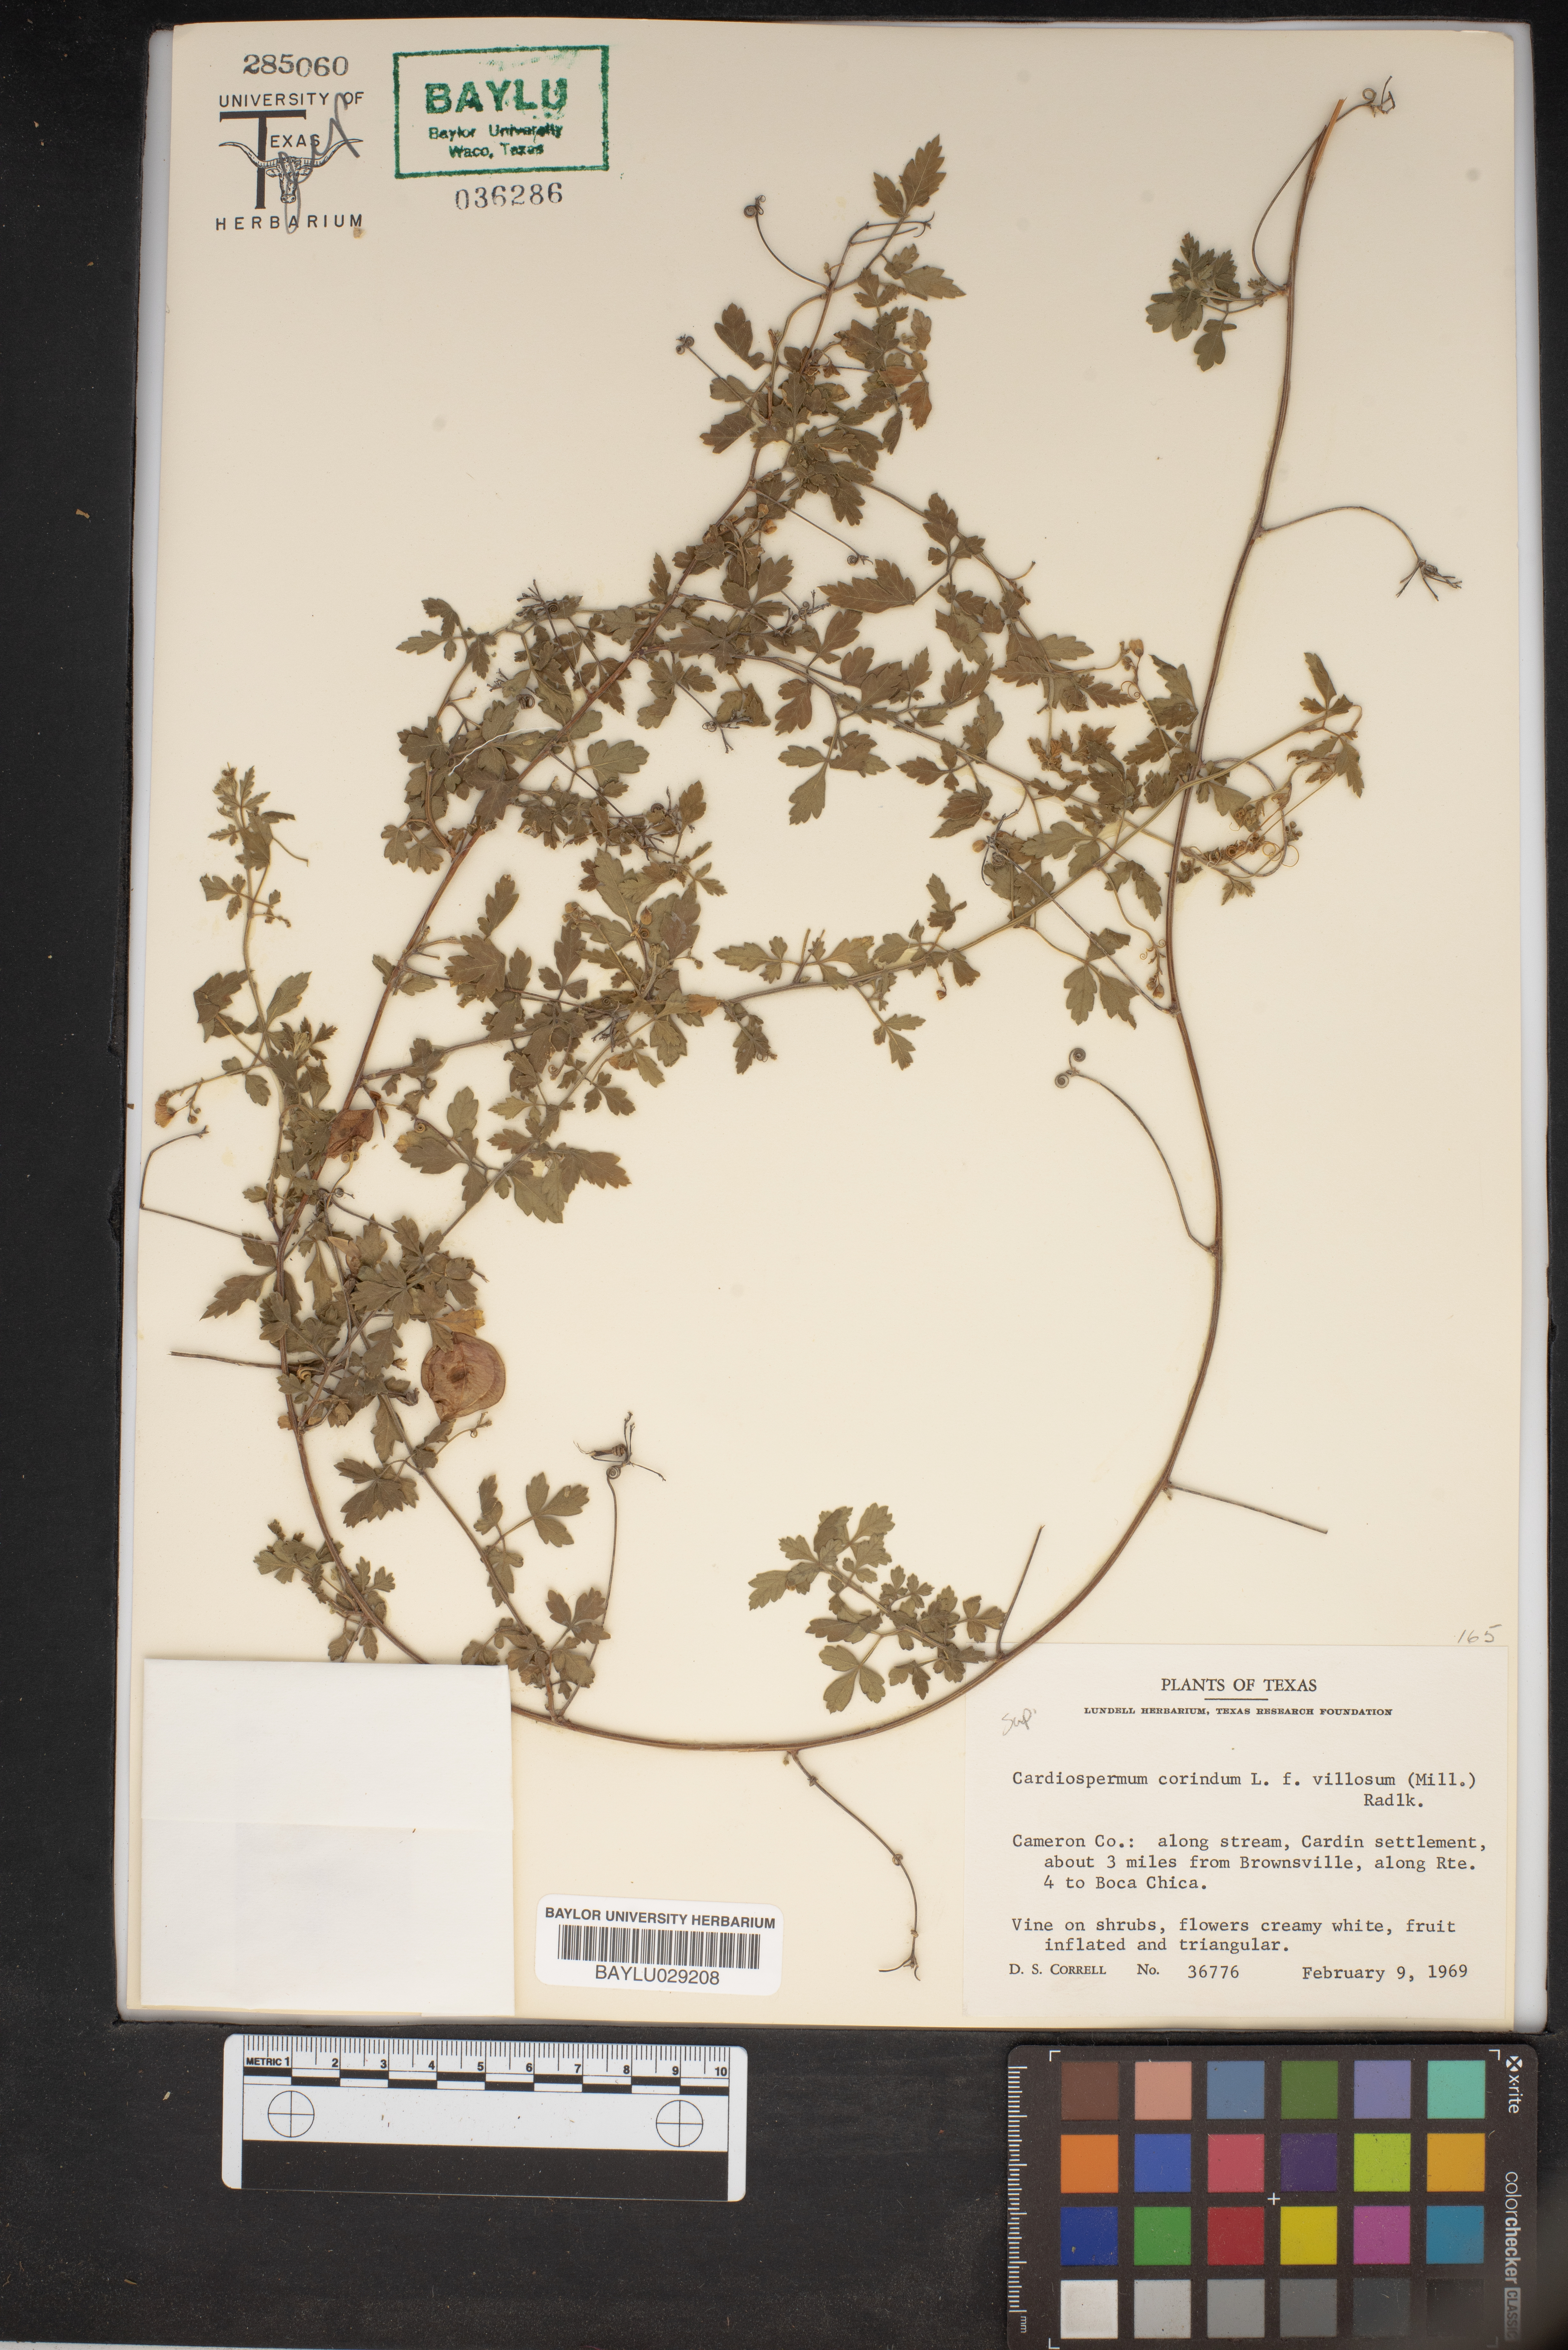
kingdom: Plantae
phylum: Tracheophyta
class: Magnoliopsida
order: Sapindales
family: Sapindaceae
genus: Cardiospermum
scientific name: Cardiospermum corindum
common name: Faux persil
